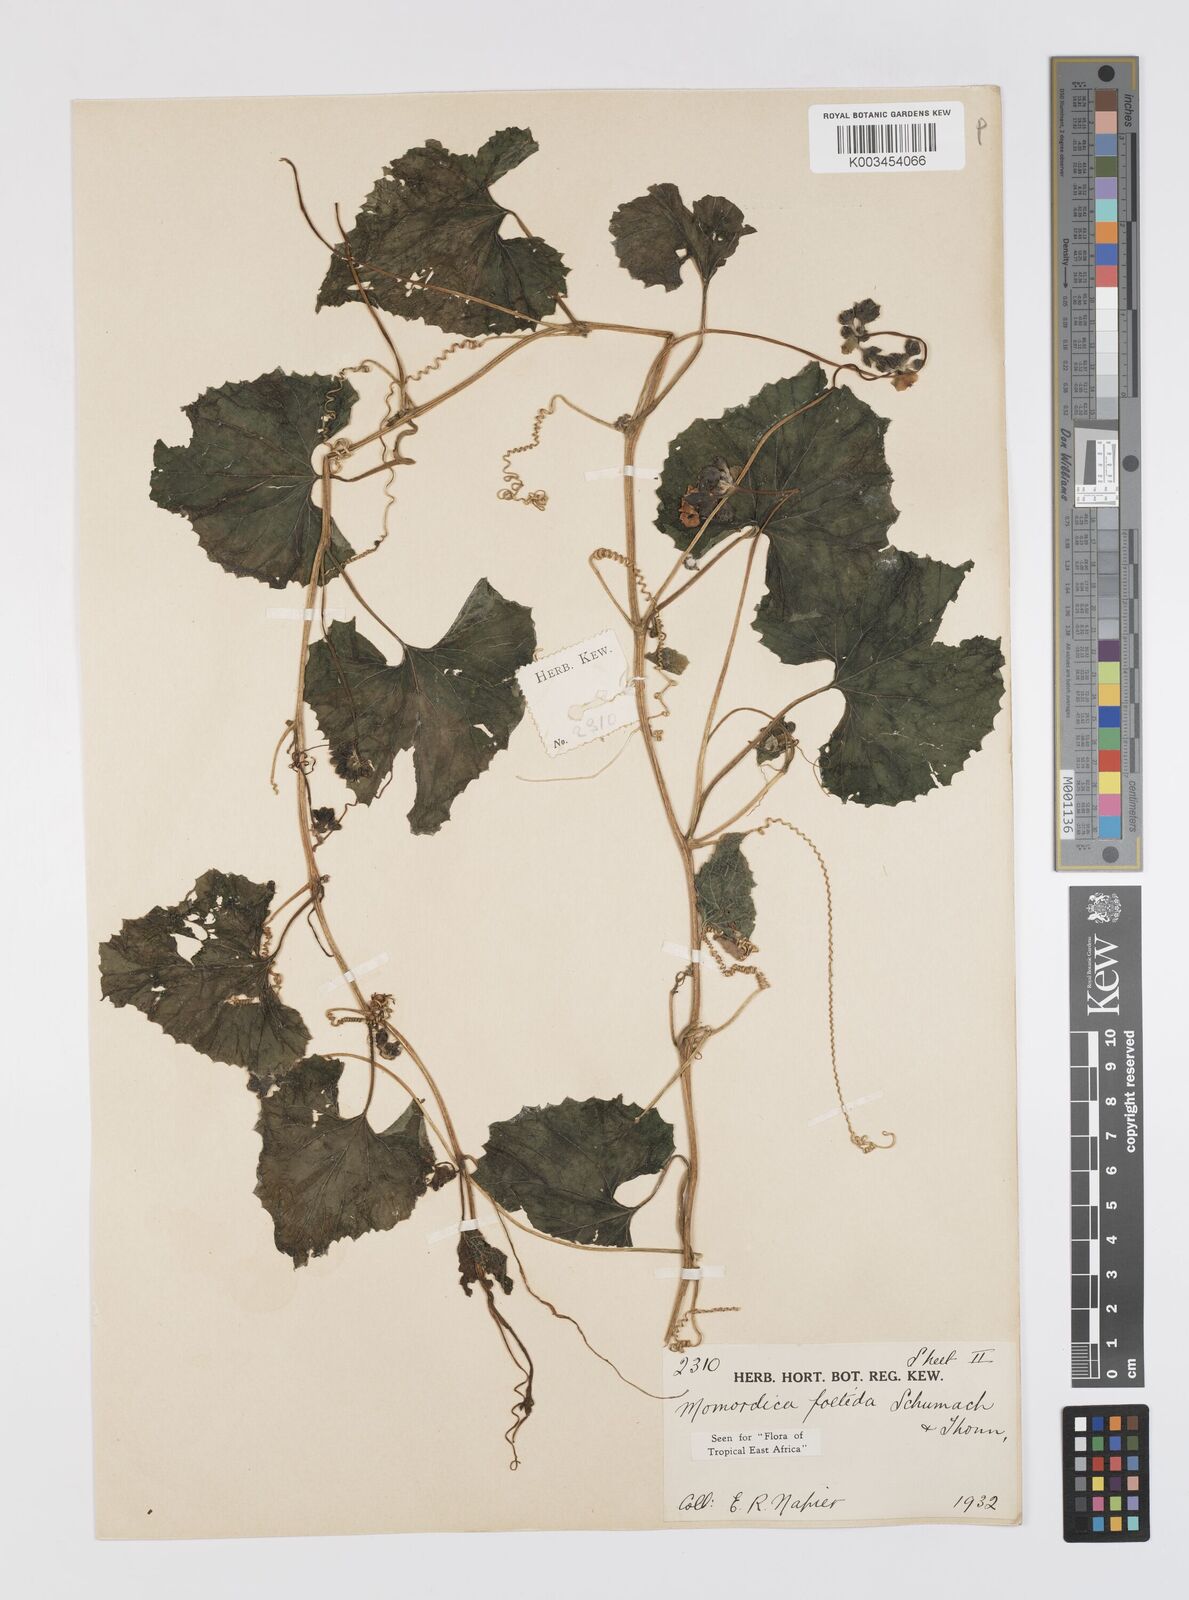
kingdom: Plantae
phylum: Tracheophyta
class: Magnoliopsida
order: Cucurbitales
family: Cucurbitaceae
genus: Momordica
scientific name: Momordica foetida
